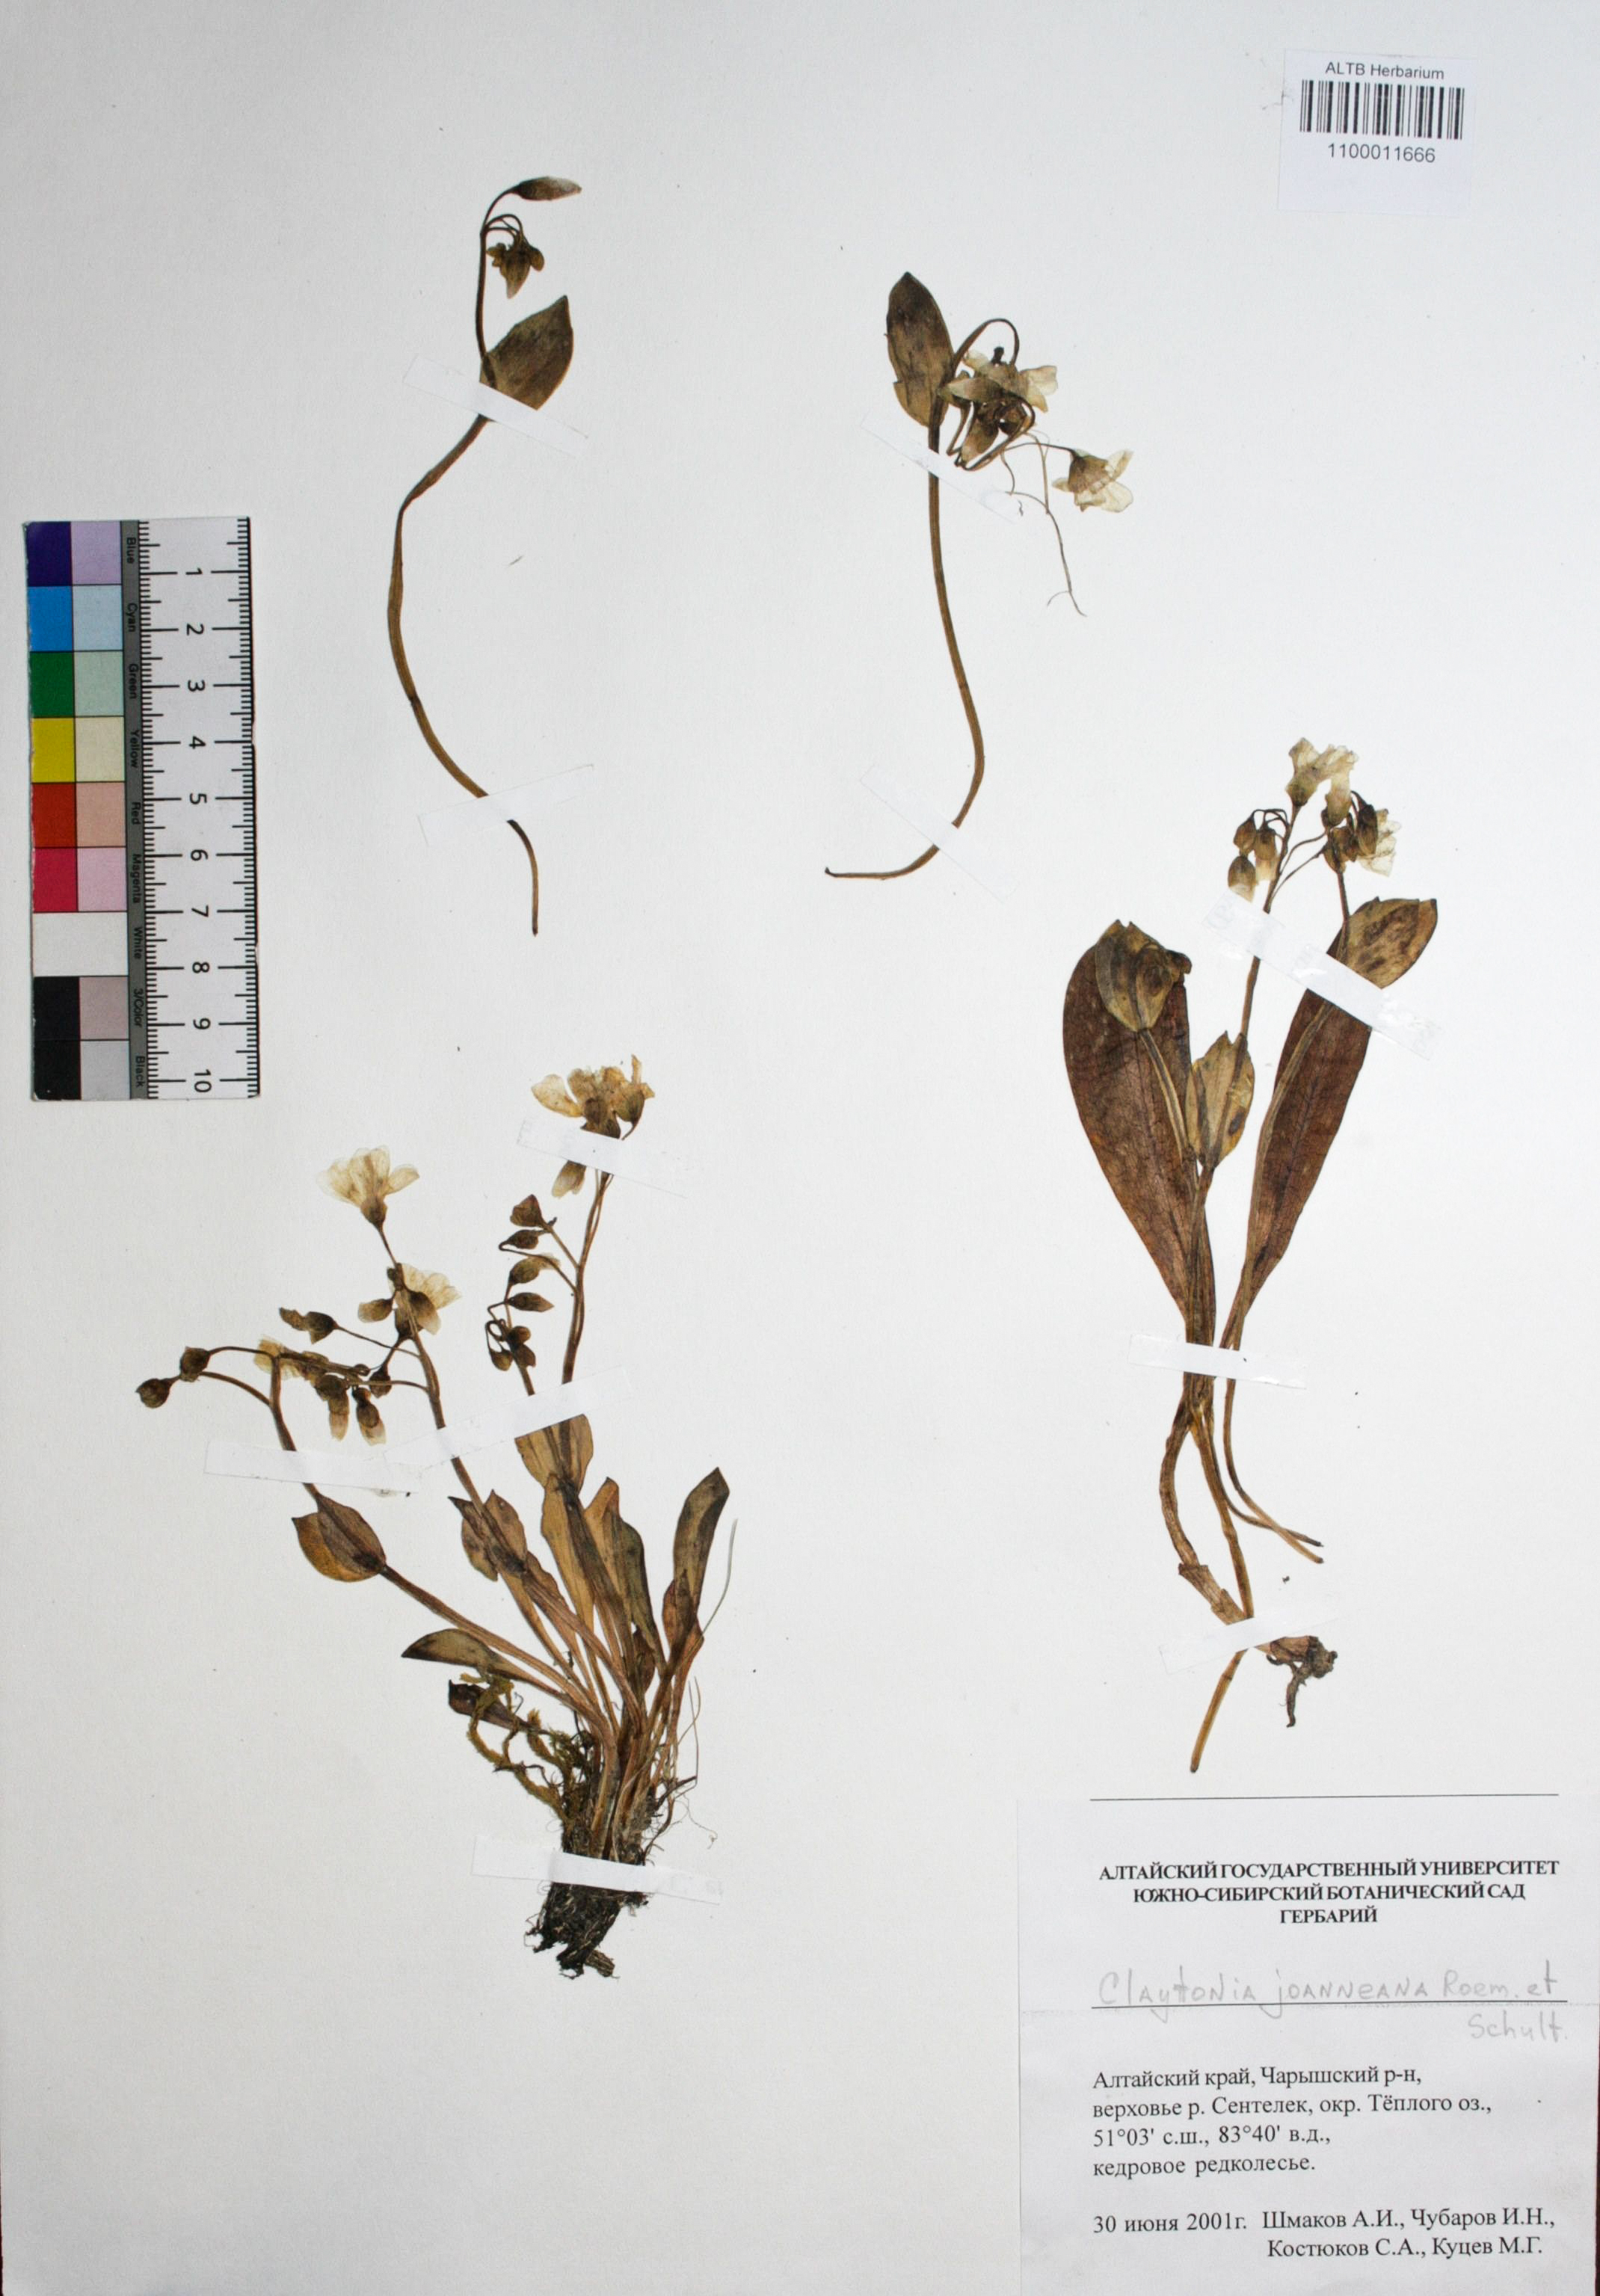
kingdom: Plantae
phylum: Tracheophyta
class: Magnoliopsida
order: Caryophyllales
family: Montiaceae
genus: Claytonia
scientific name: Claytonia joanneana
